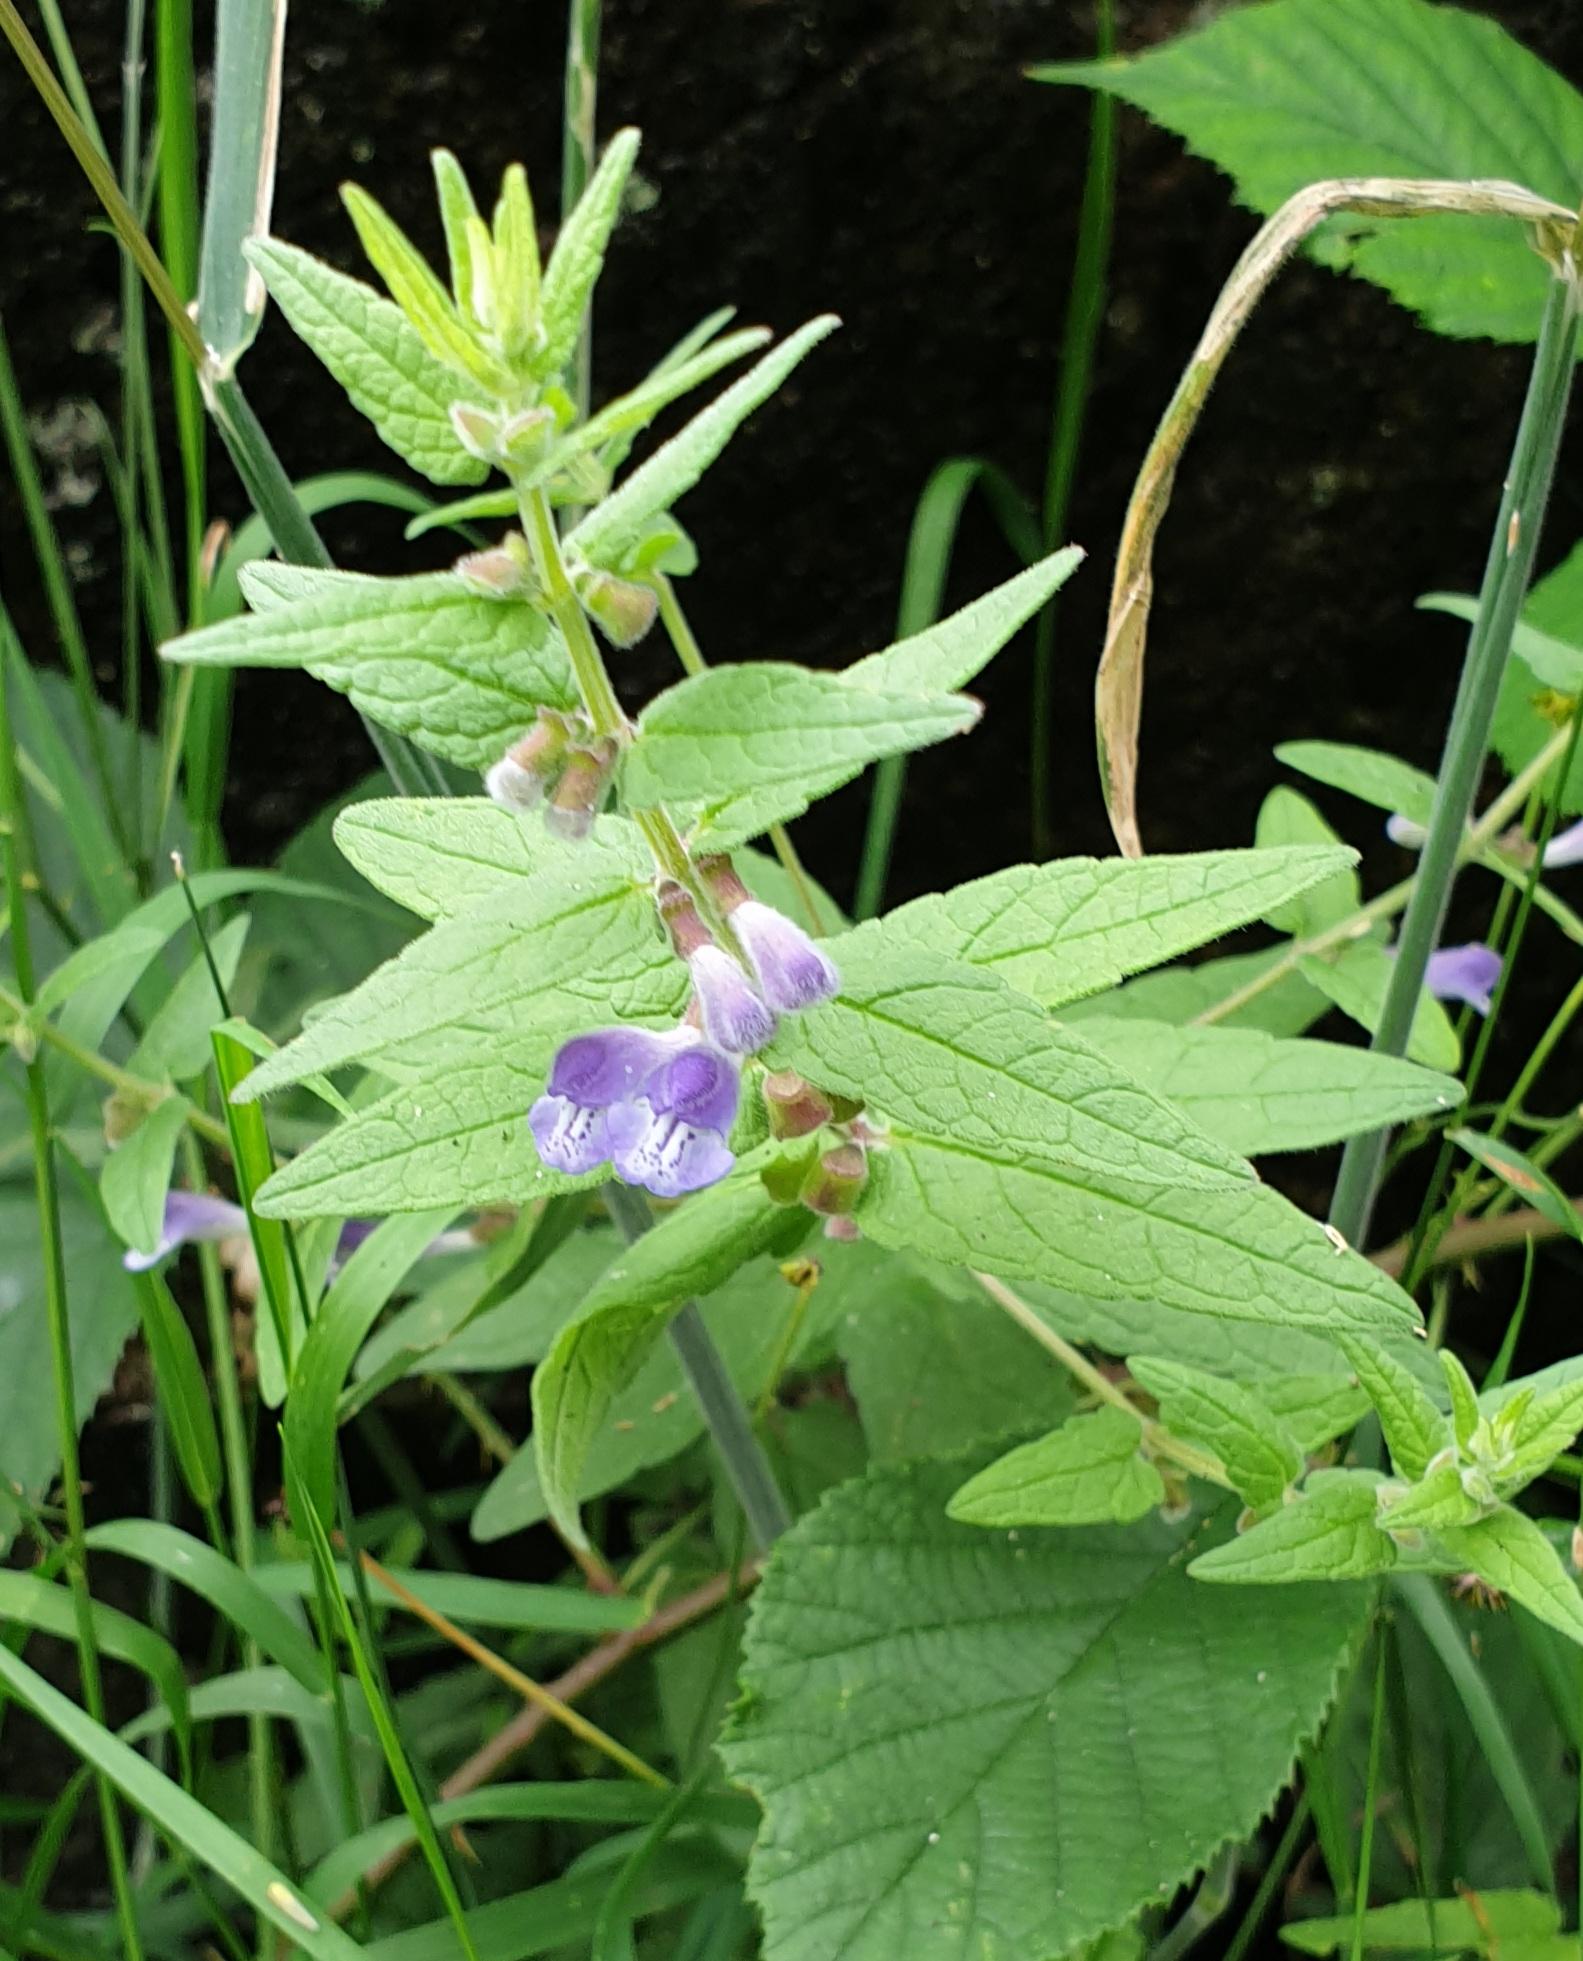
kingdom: Plantae
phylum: Tracheophyta
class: Magnoliopsida
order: Lamiales
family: Lamiaceae
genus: Scutellaria
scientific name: Scutellaria galericulata
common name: Almindelig skjolddrager
